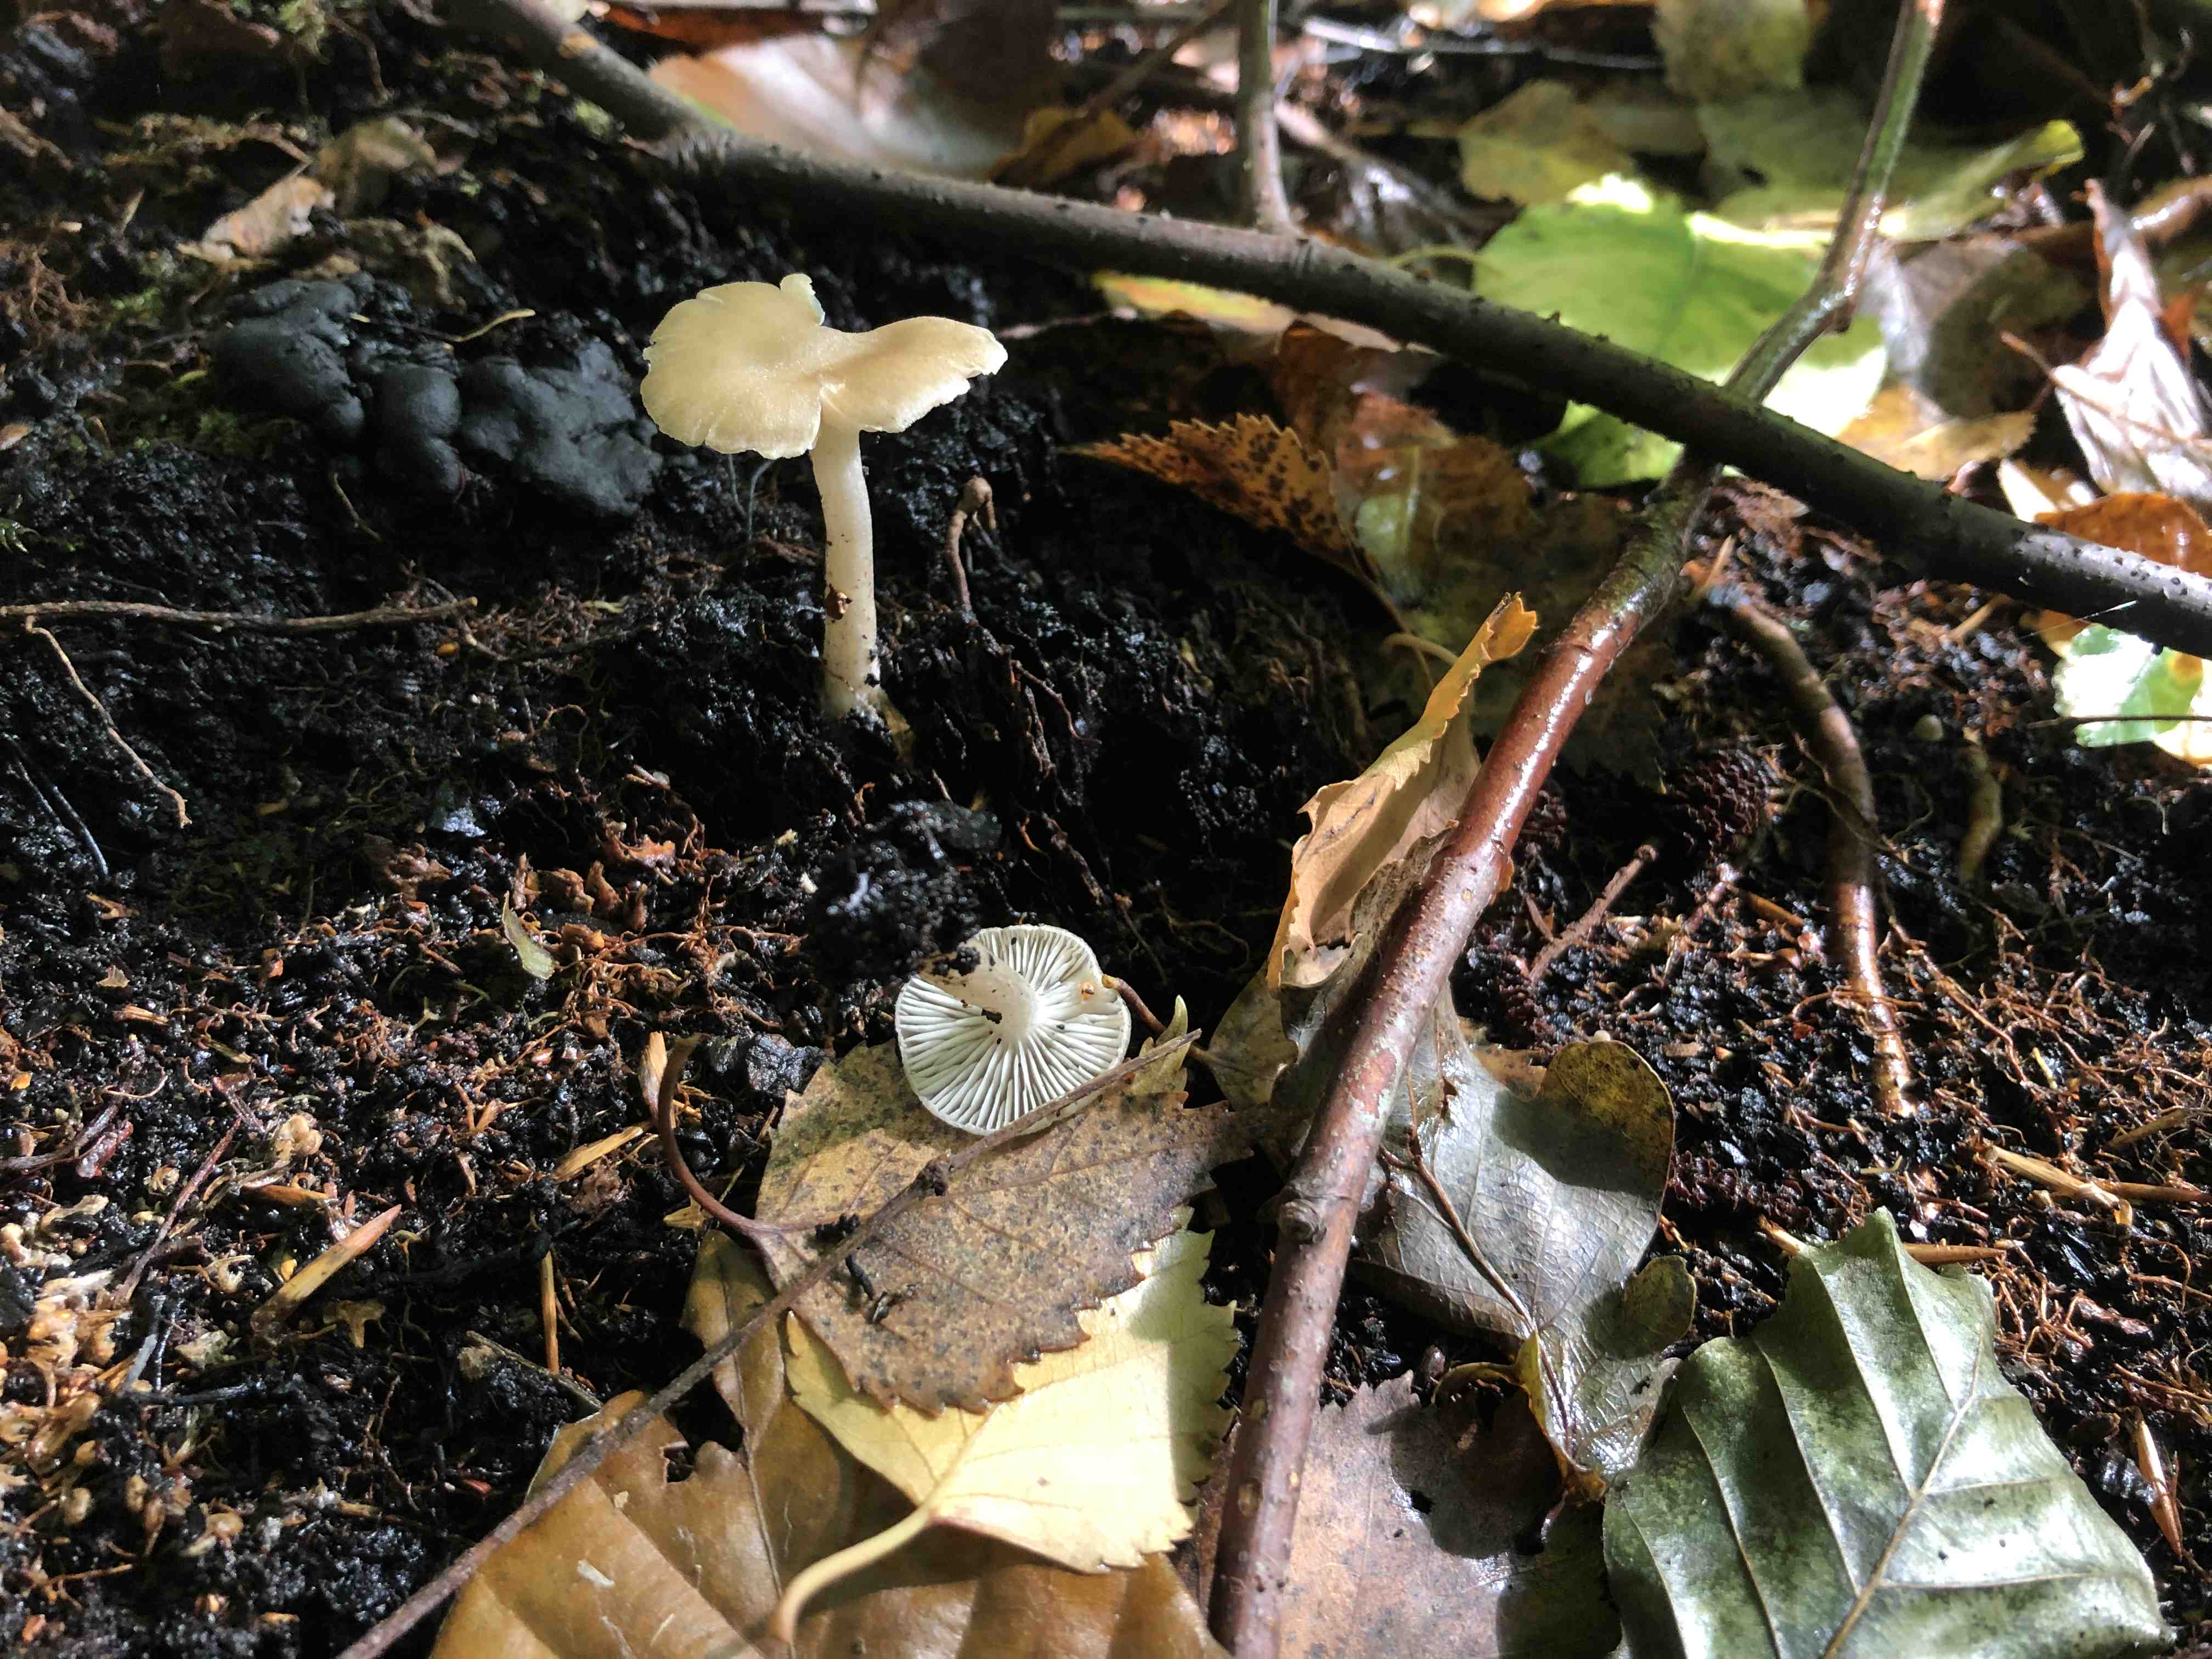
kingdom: Fungi
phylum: Basidiomycota
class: Agaricomycetes
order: Agaricales
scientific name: Agaricales
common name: champignonordenen
